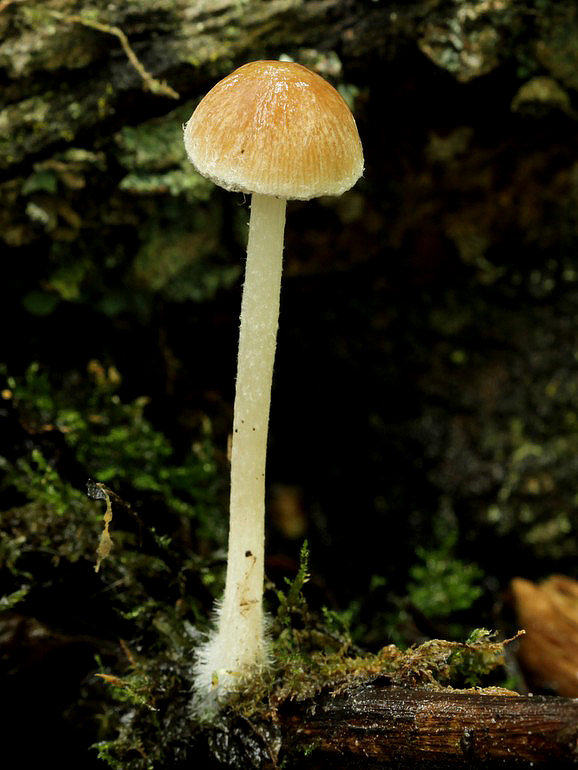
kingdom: Fungi
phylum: Basidiomycota
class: Agaricomycetes
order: Agaricales
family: Psathyrellaceae
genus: Psathyrella
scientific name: Psathyrella thujina
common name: staude-mørkhat
